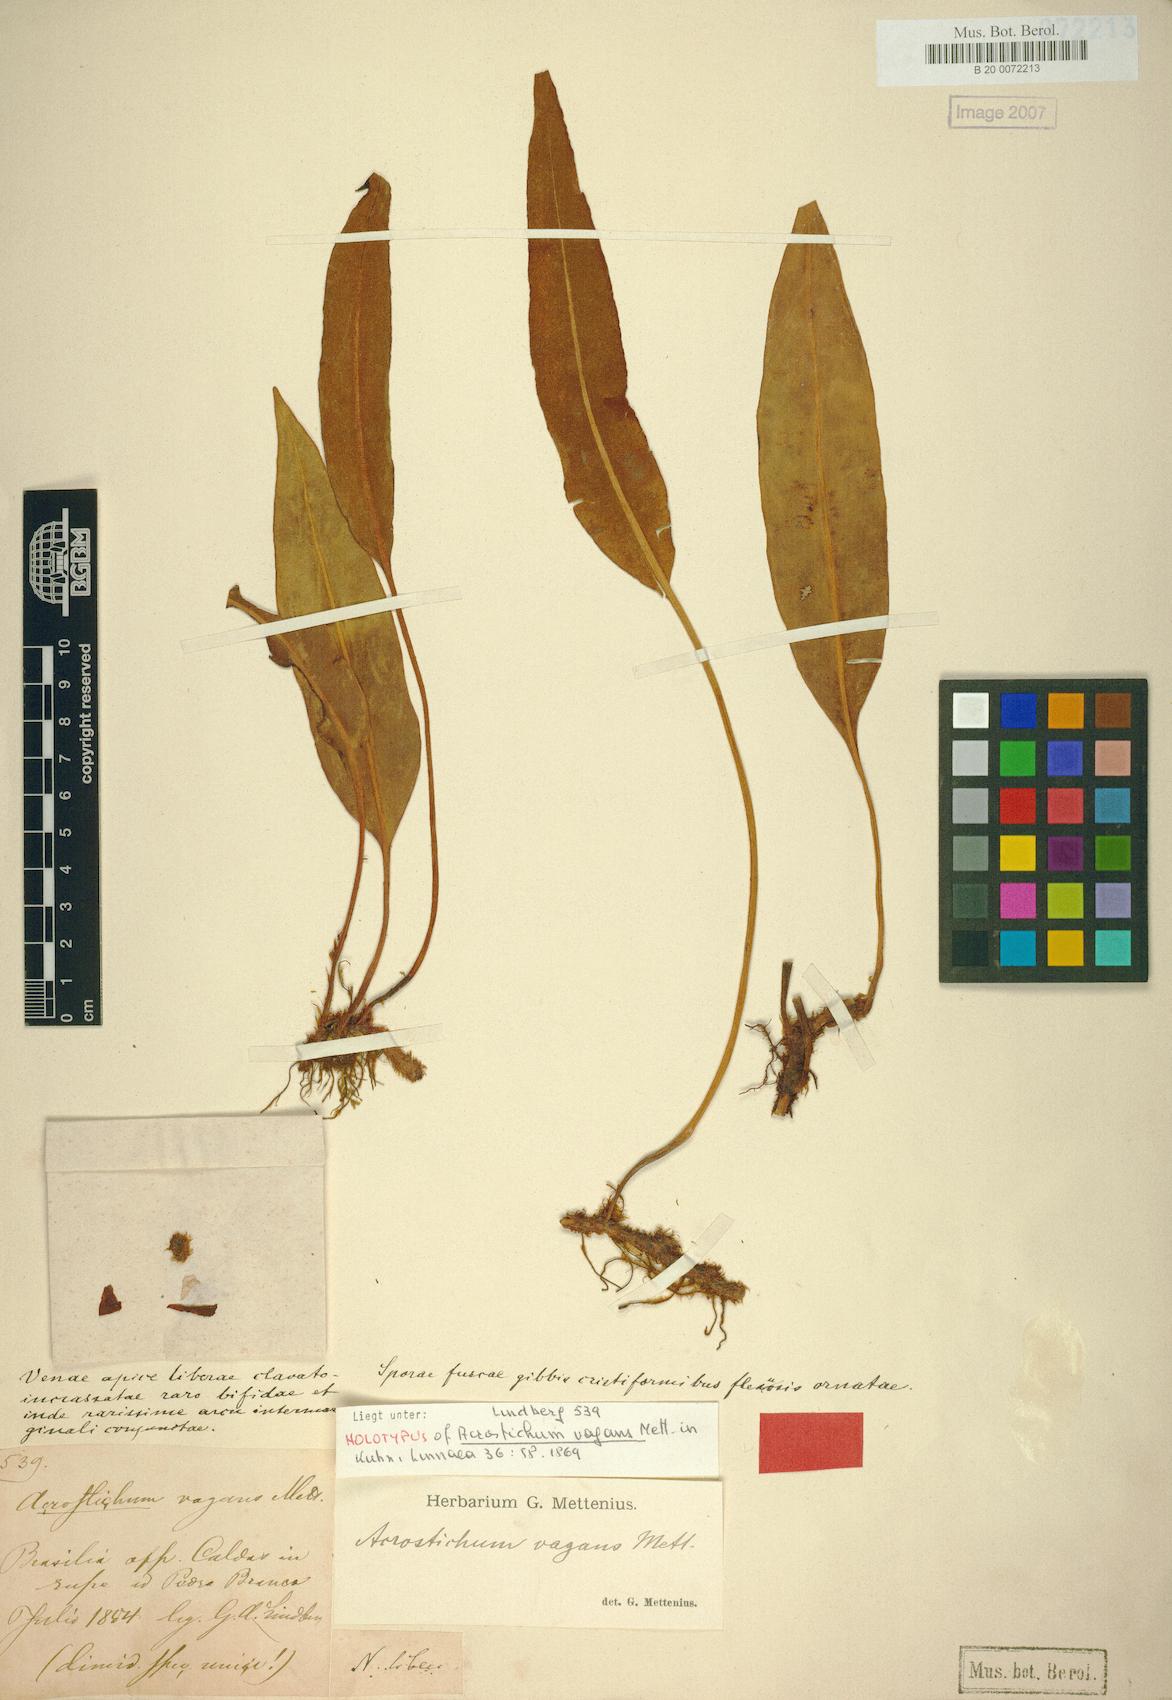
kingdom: Plantae
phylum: Tracheophyta
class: Polypodiopsida
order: Polypodiales
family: Dryopteridaceae
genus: Elaphoglossum
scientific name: Elaphoglossum vagans
